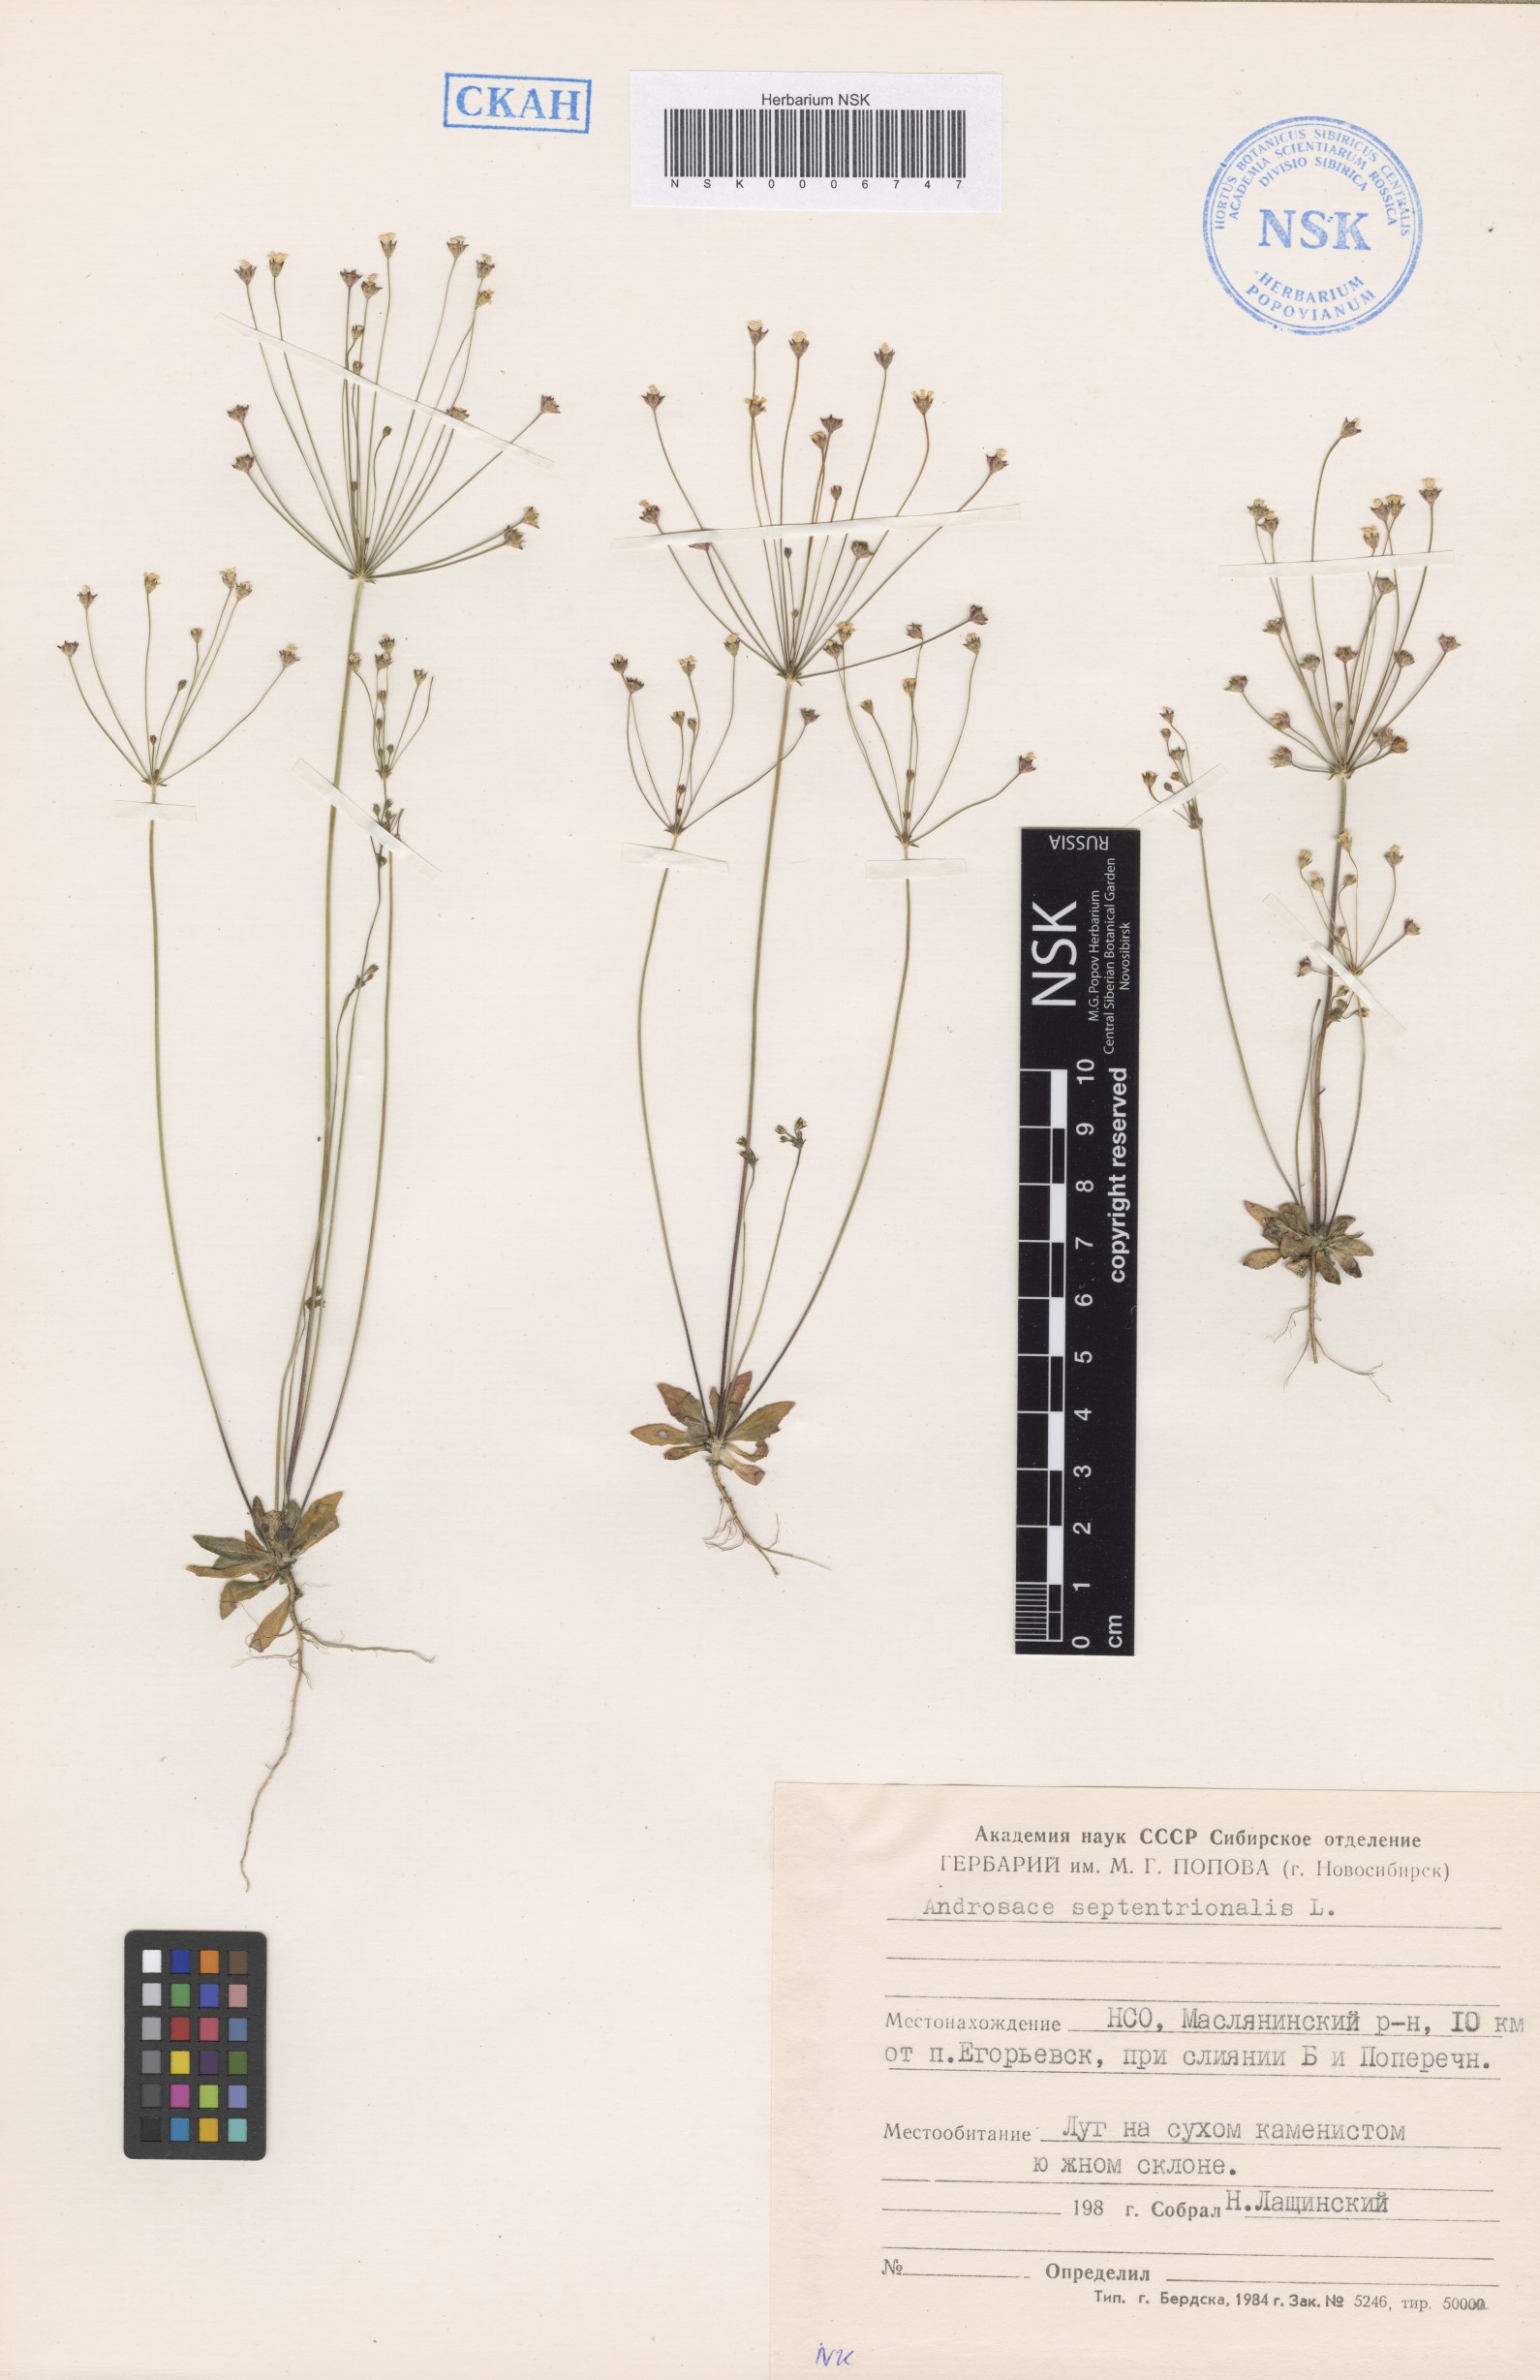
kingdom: Plantae
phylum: Tracheophyta
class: Magnoliopsida
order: Ericales
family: Primulaceae
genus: Androsace
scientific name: Androsace septentrionalis
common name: Hairy northern fairy-candelabra
